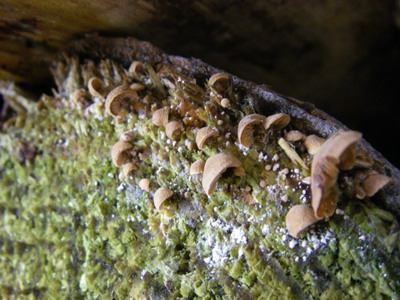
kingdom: Fungi
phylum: Basidiomycota
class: Agaricomycetes
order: Agaricales
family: Strophariaceae
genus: Deconica
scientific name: Deconica horizontalis
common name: ved-stråhat
